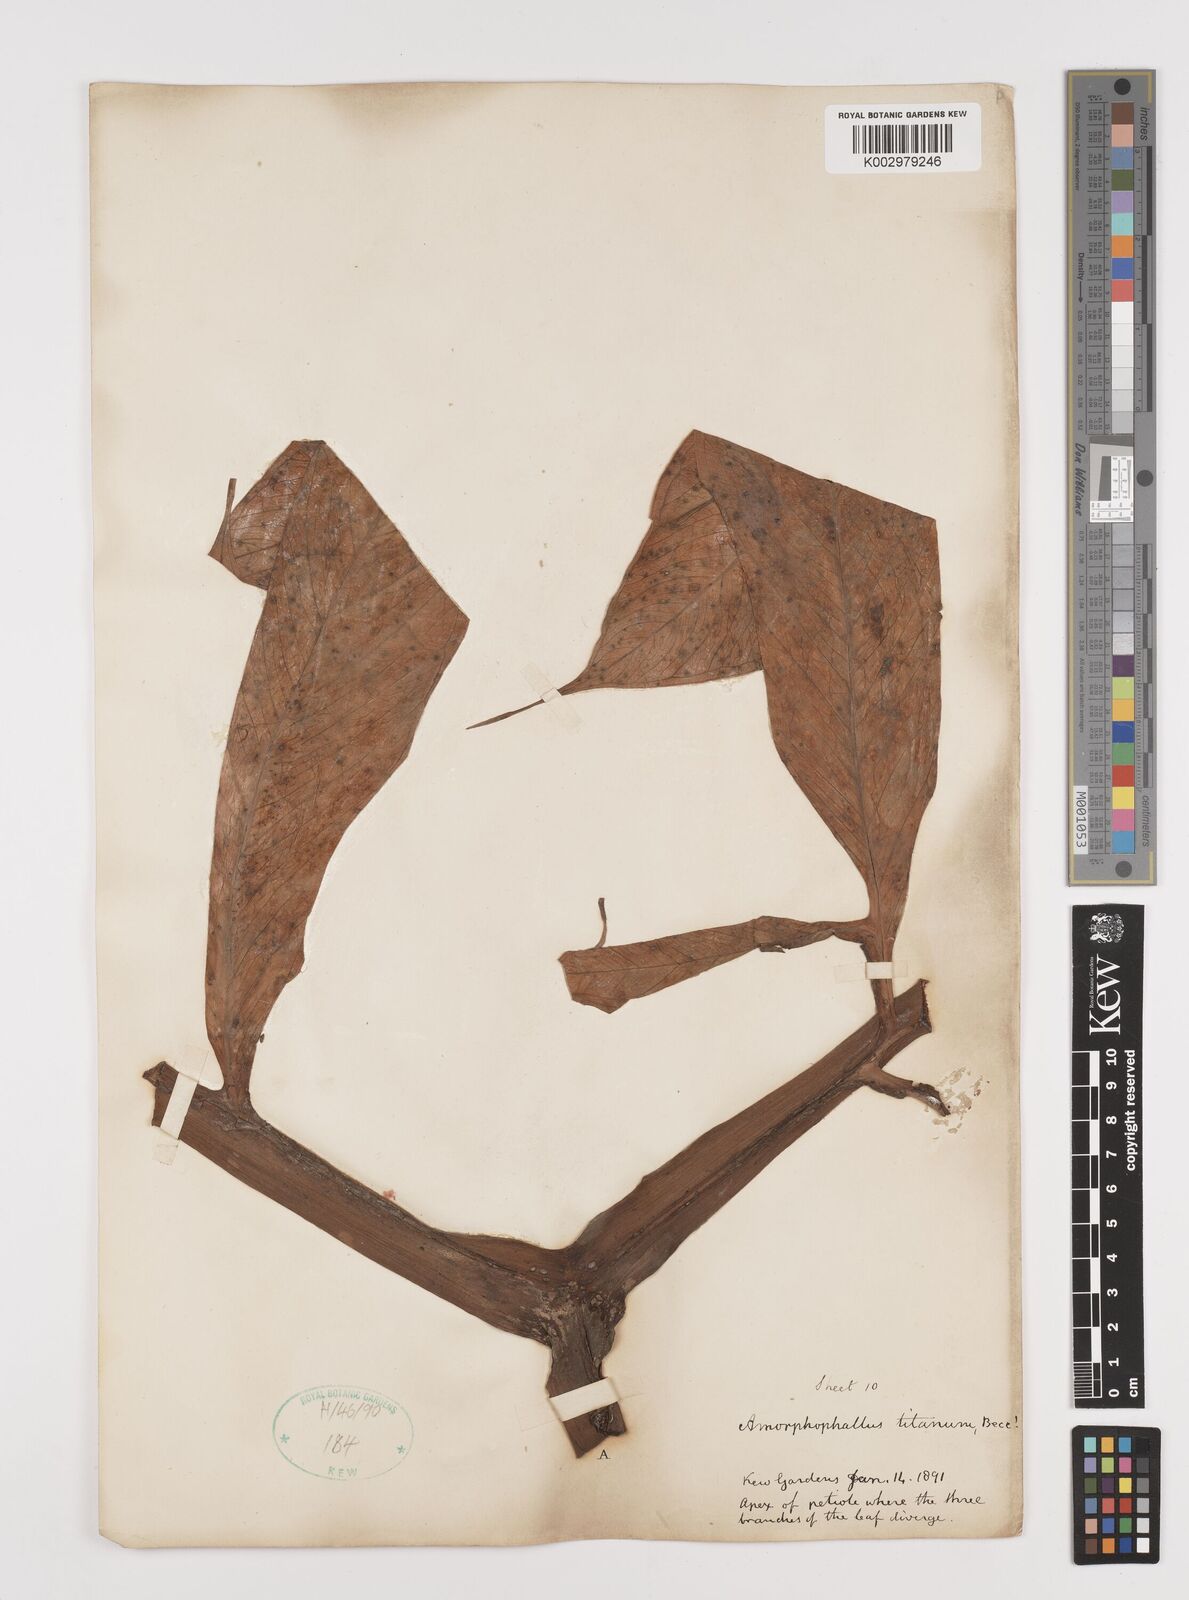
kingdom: Plantae
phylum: Tracheophyta
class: Liliopsida
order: Alismatales
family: Araceae
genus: Amorphophallus
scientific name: Amorphophallus titanum
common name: Titan arum
